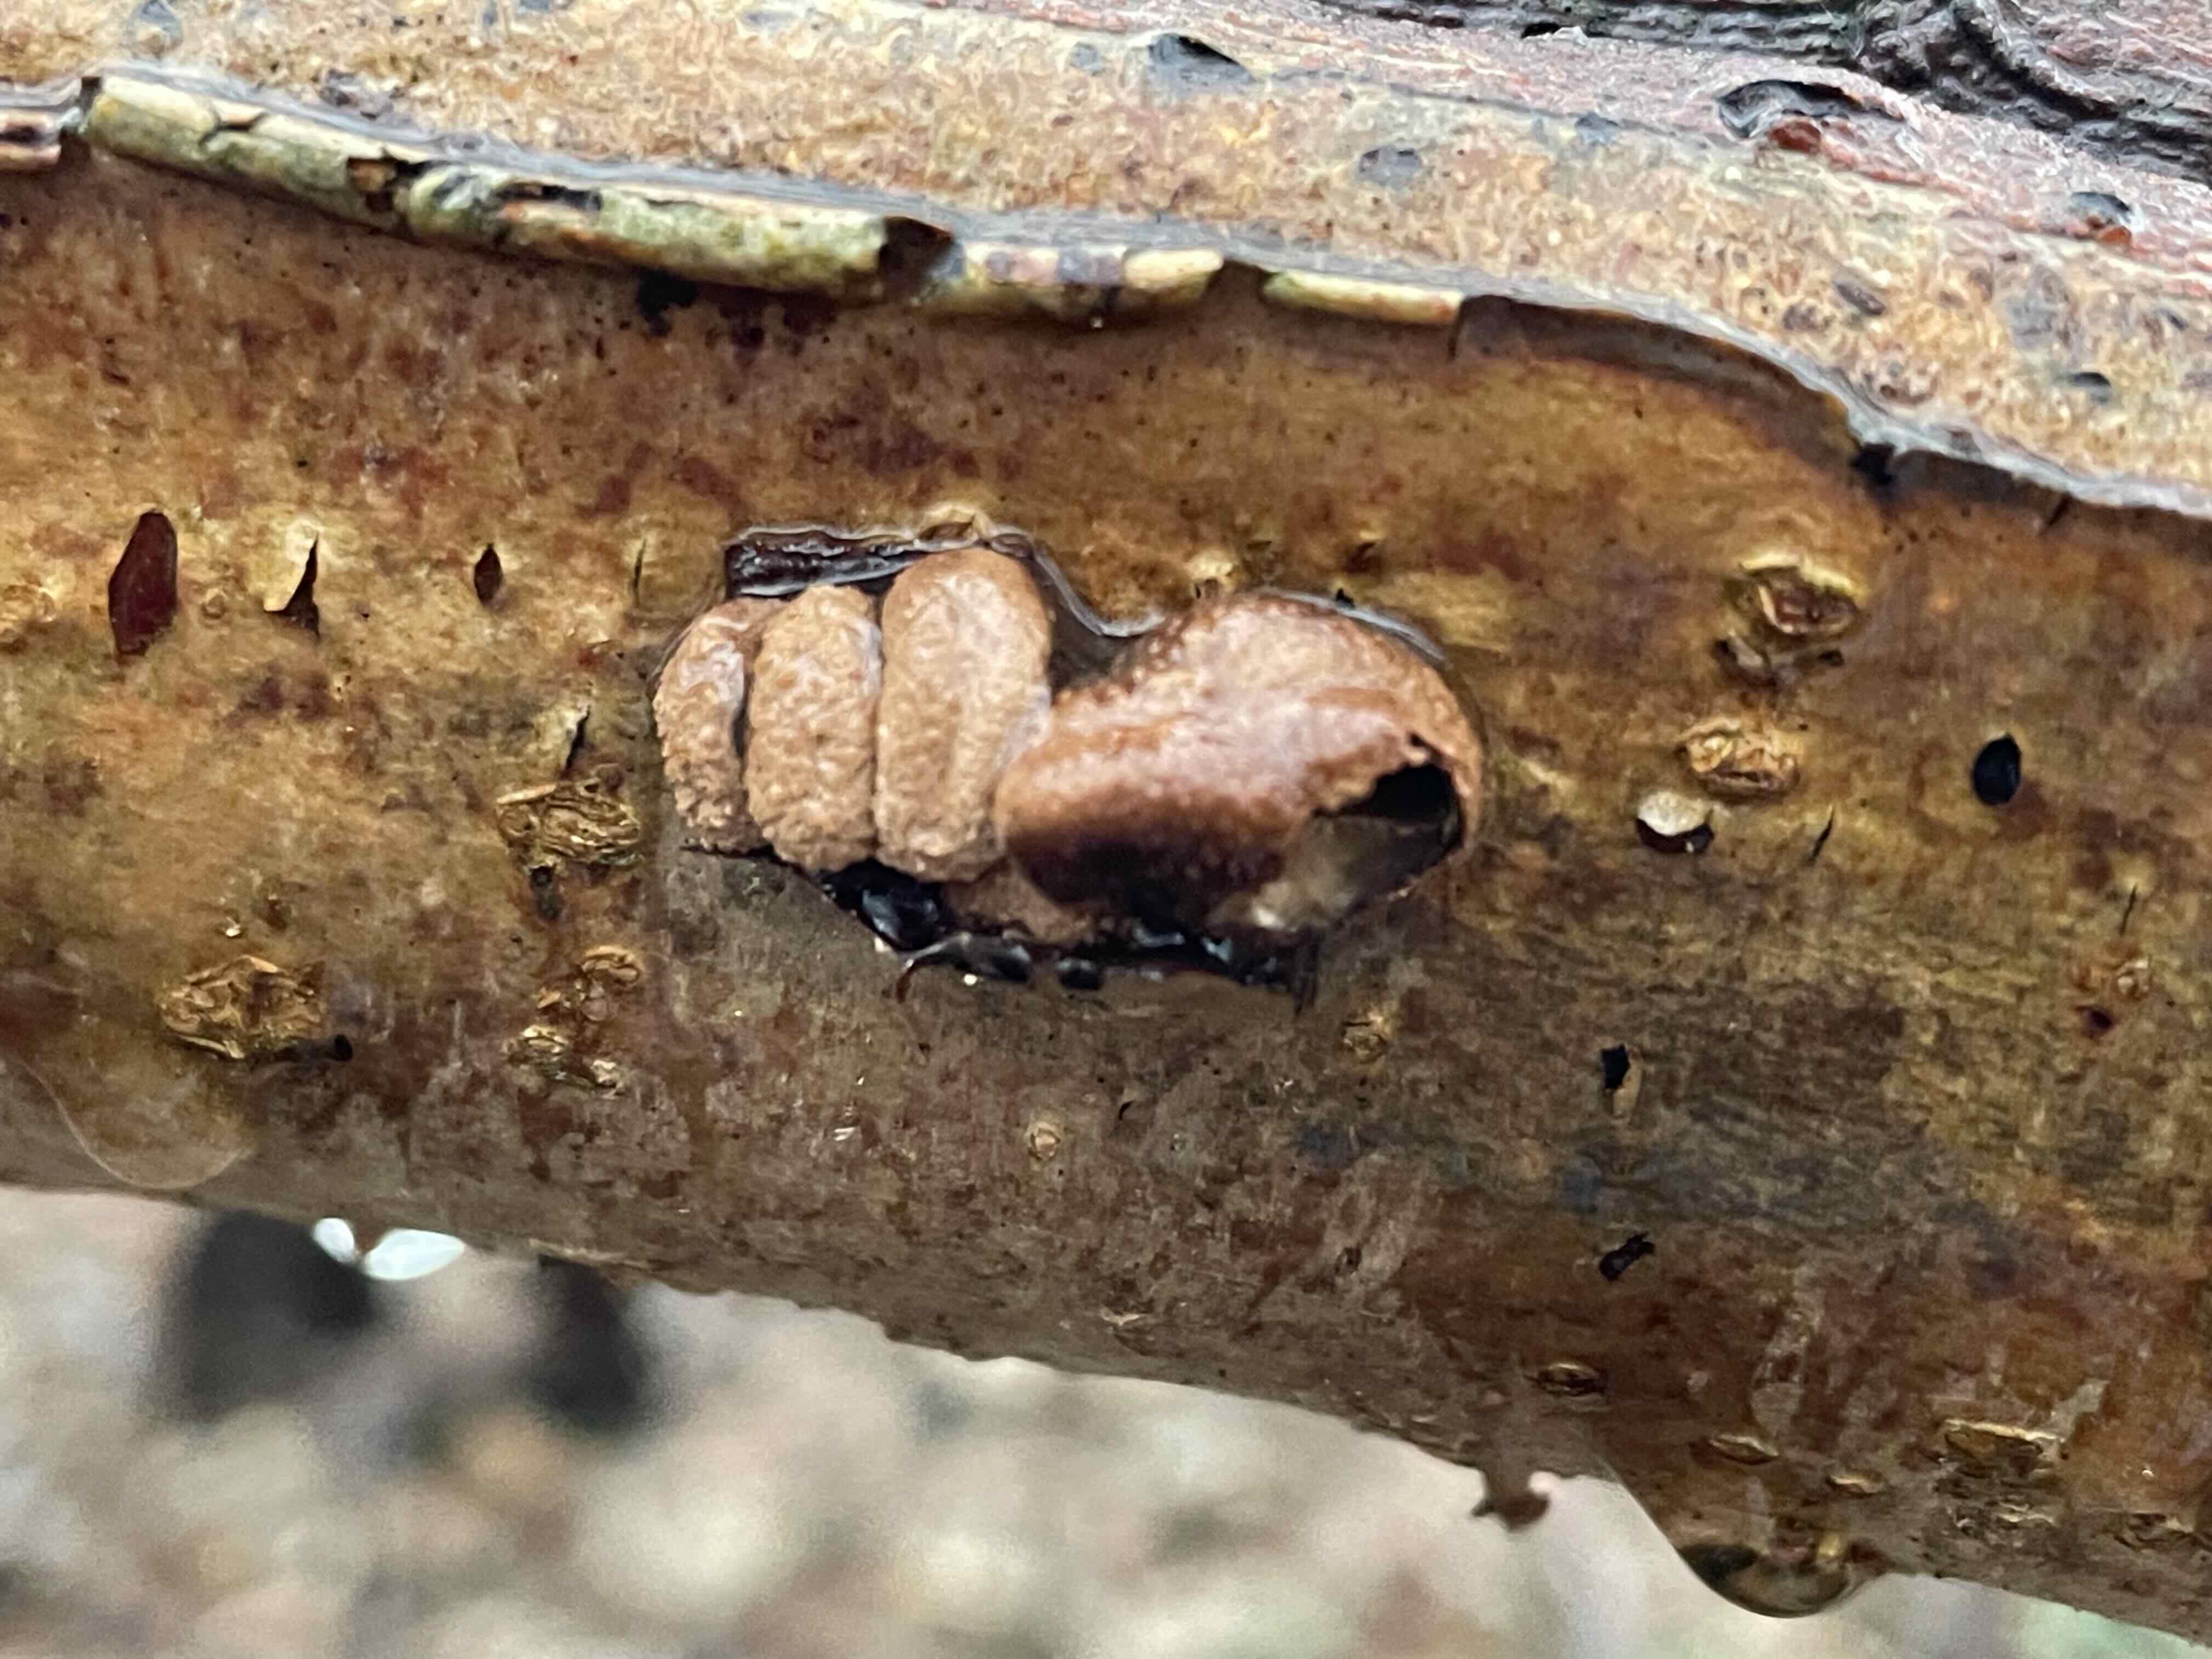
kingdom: Fungi
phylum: Ascomycota
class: Leotiomycetes
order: Helotiales
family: Cenangiaceae
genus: Encoelia
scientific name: Encoelia furfuracea
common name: hassel-læderskive
